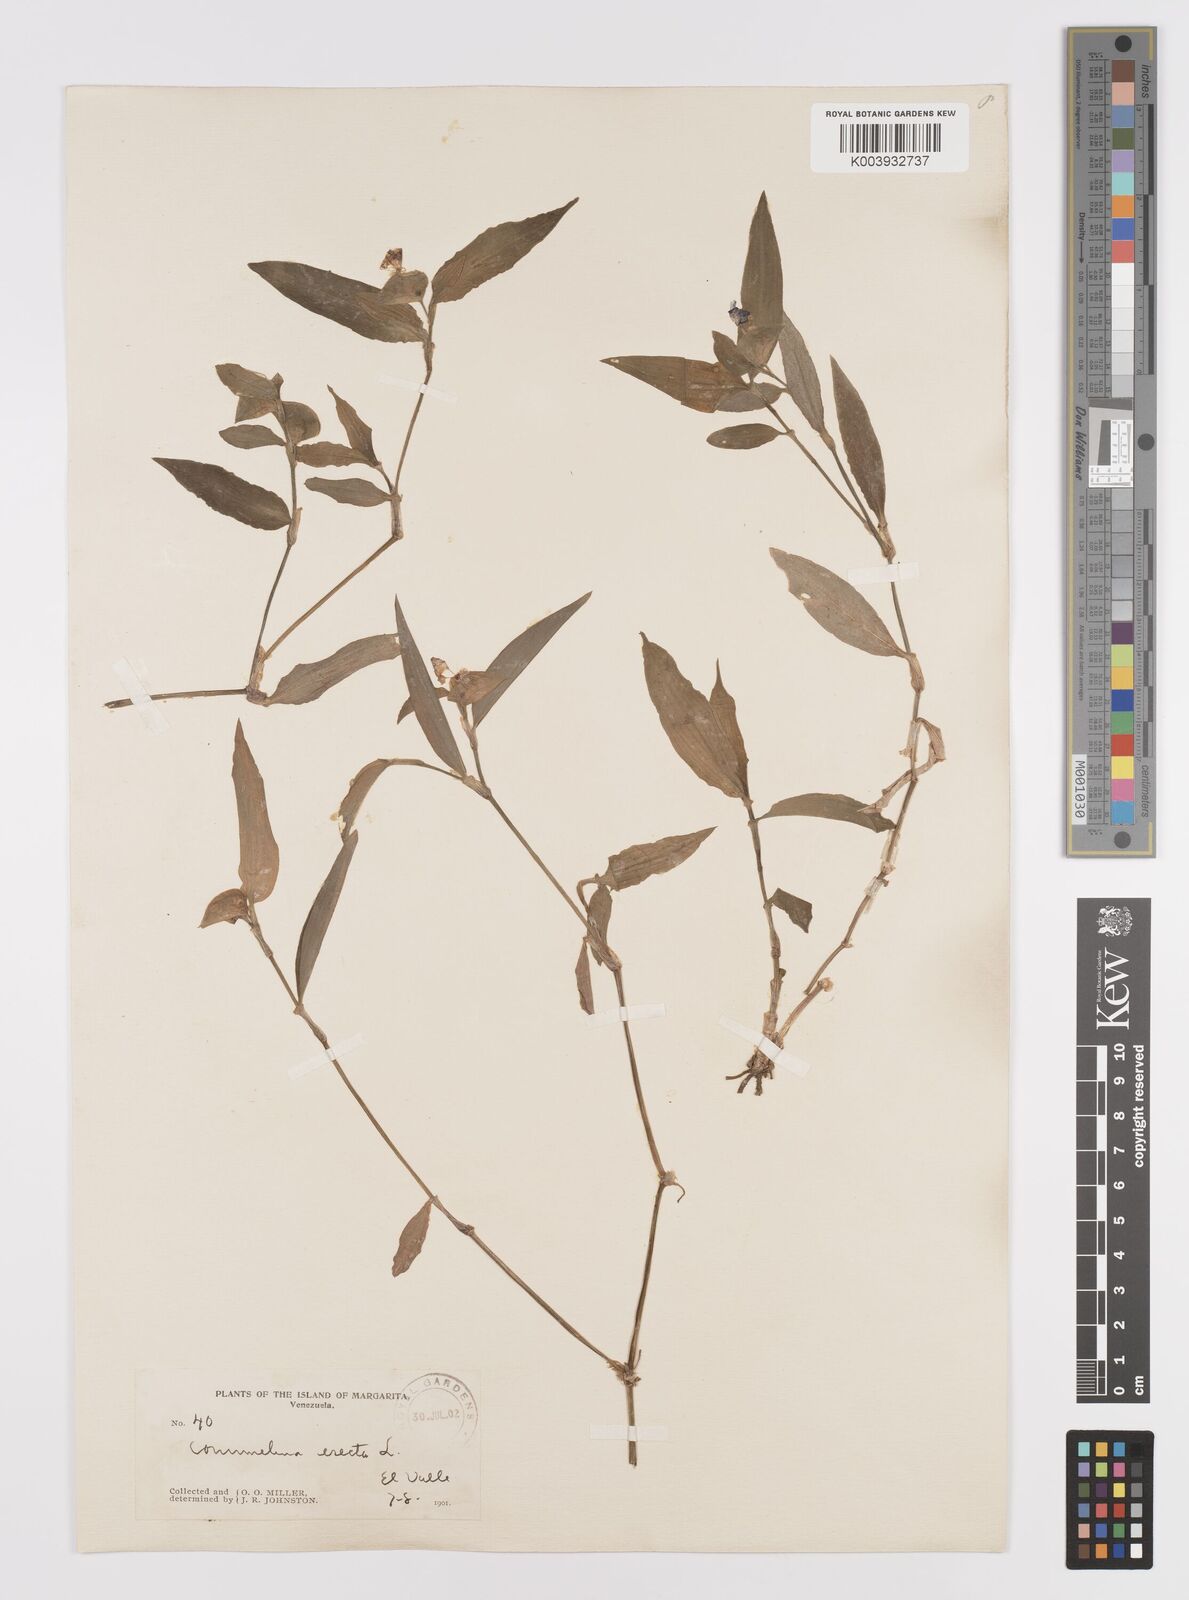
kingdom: Plantae
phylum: Tracheophyta
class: Liliopsida
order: Commelinales
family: Commelinaceae
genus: Commelina
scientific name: Commelina erecta
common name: Blousel blommetjie
